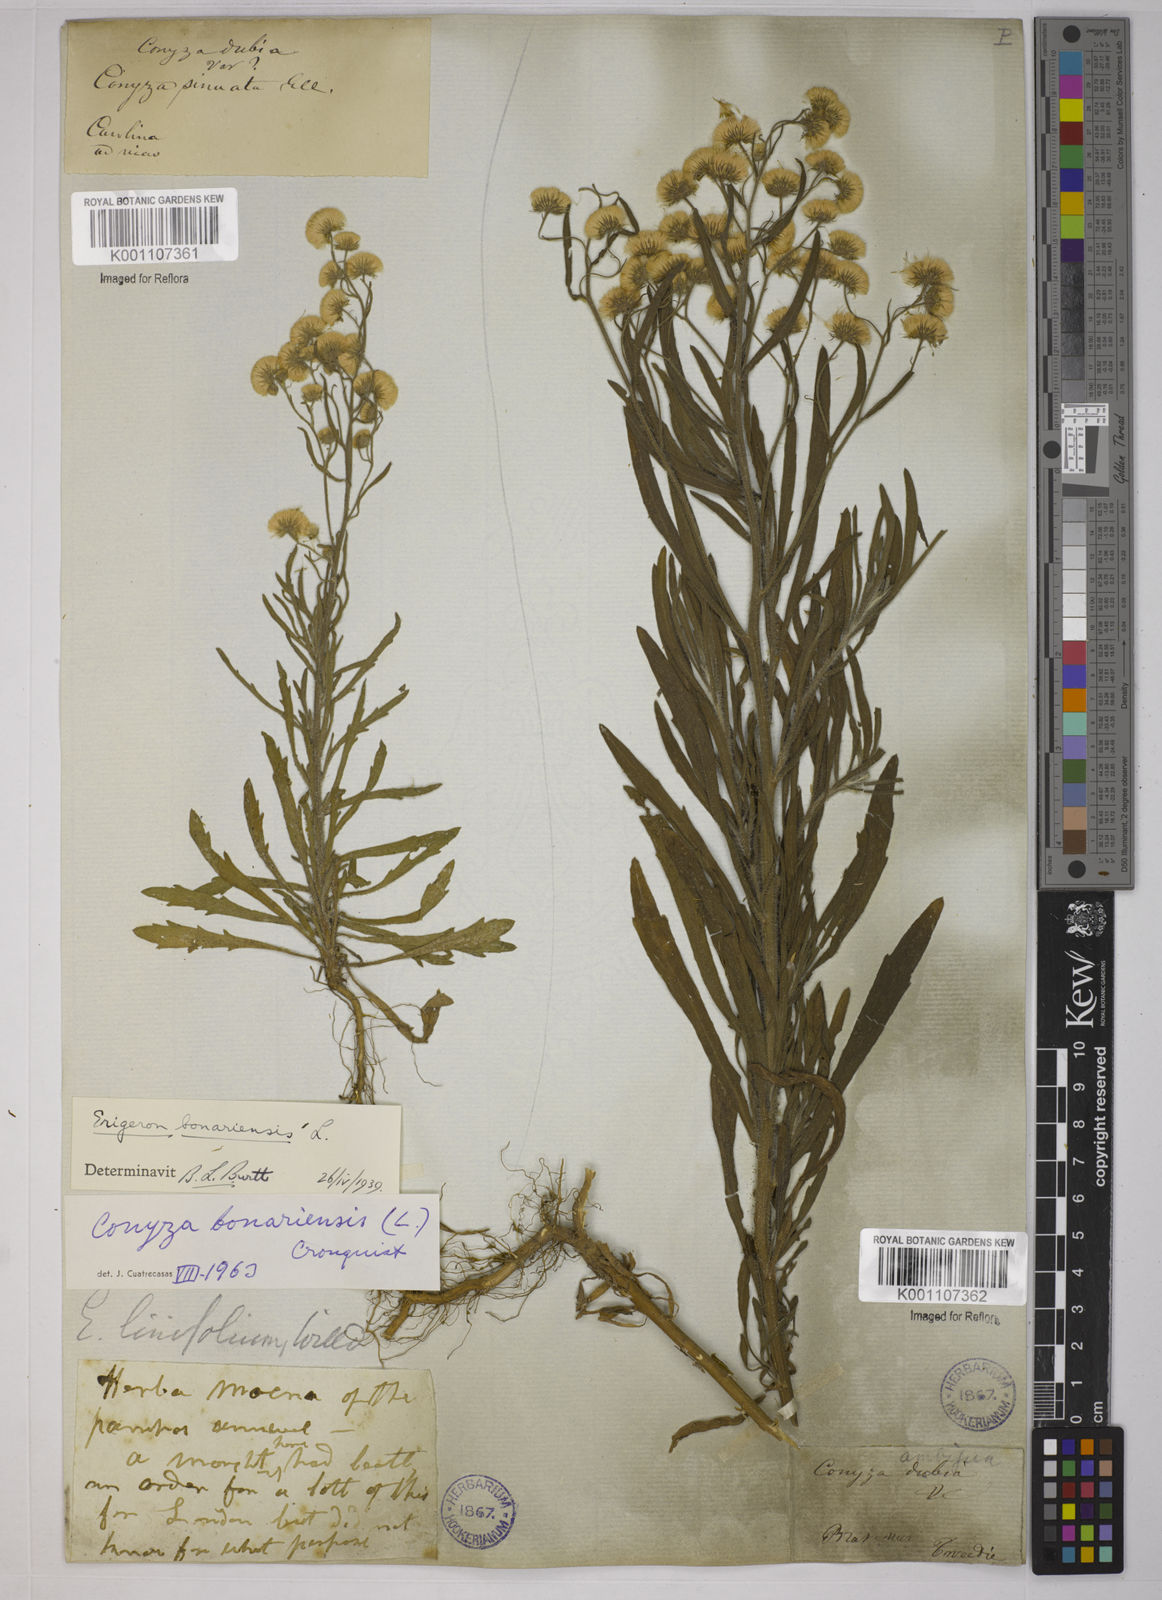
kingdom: Plantae
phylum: Tracheophyta
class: Magnoliopsida
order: Asterales
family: Asteraceae
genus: Erigeron
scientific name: Erigeron bonariensis
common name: Argentine fleabane
